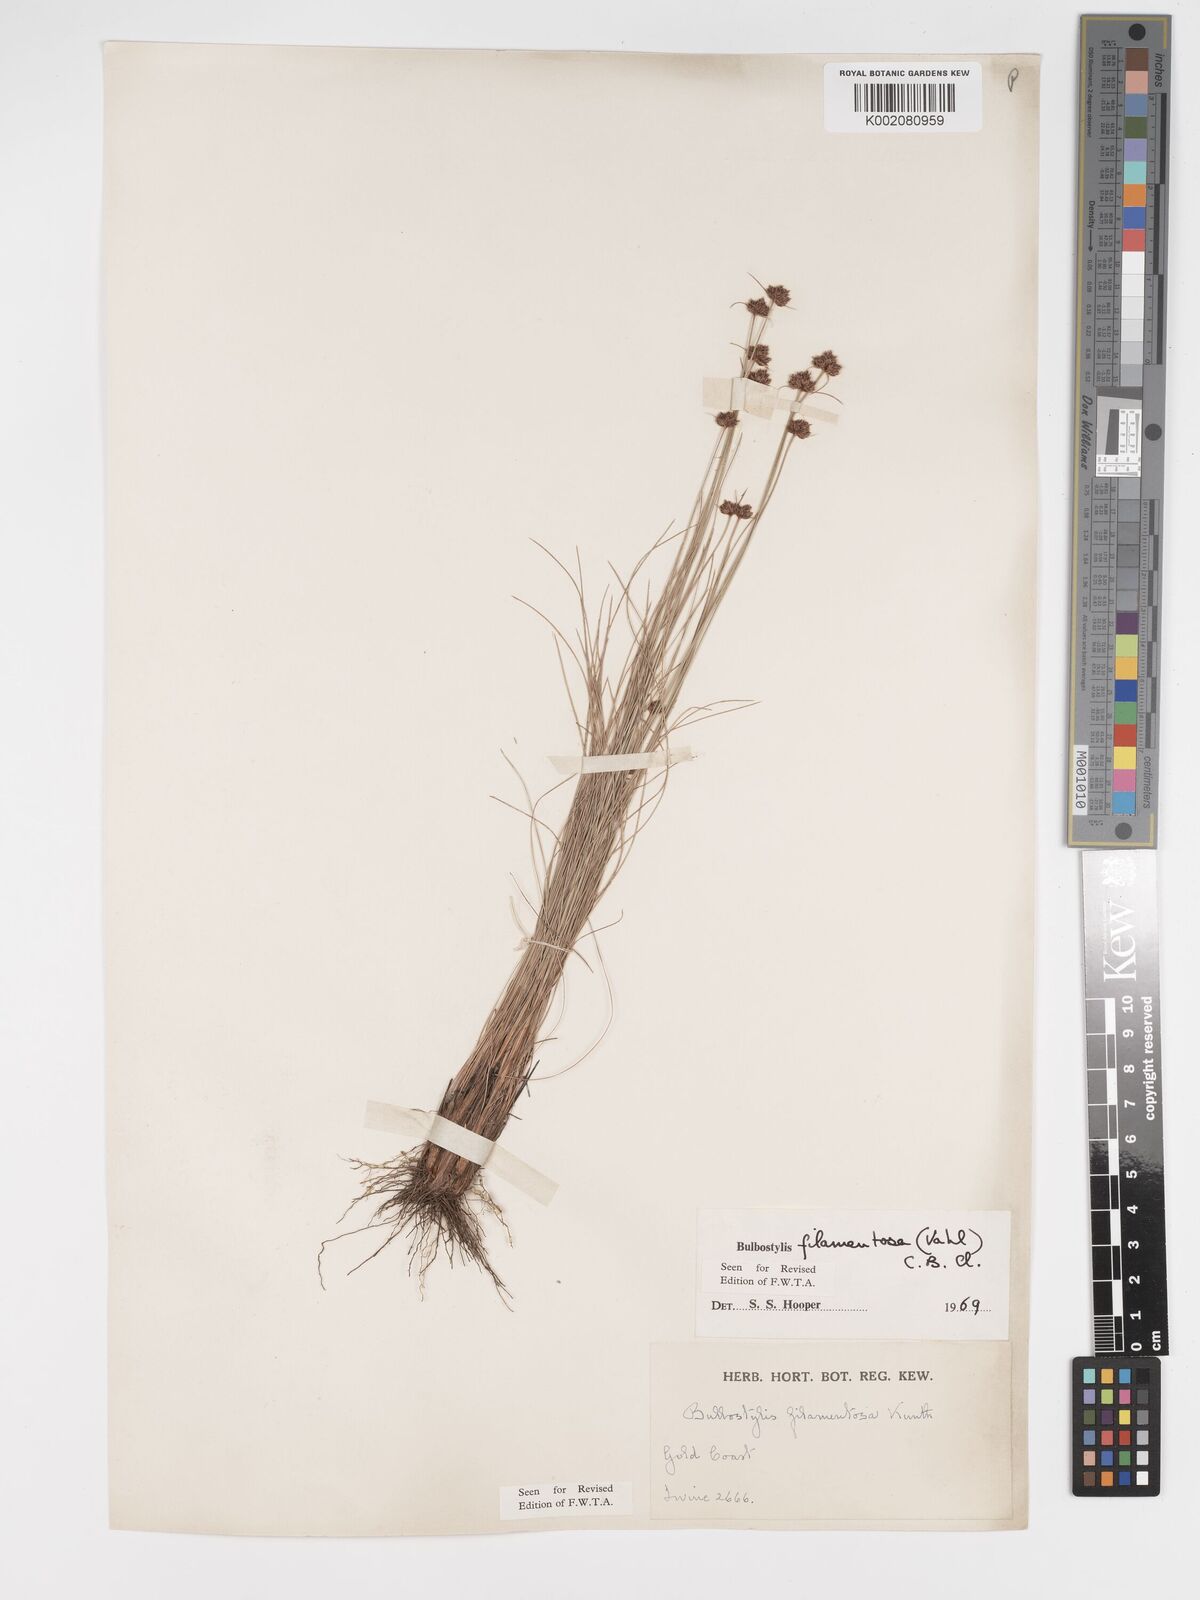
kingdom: Plantae
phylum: Tracheophyta
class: Liliopsida
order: Poales
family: Cyperaceae
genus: Bulbostylis
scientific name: Bulbostylis filamentosa
